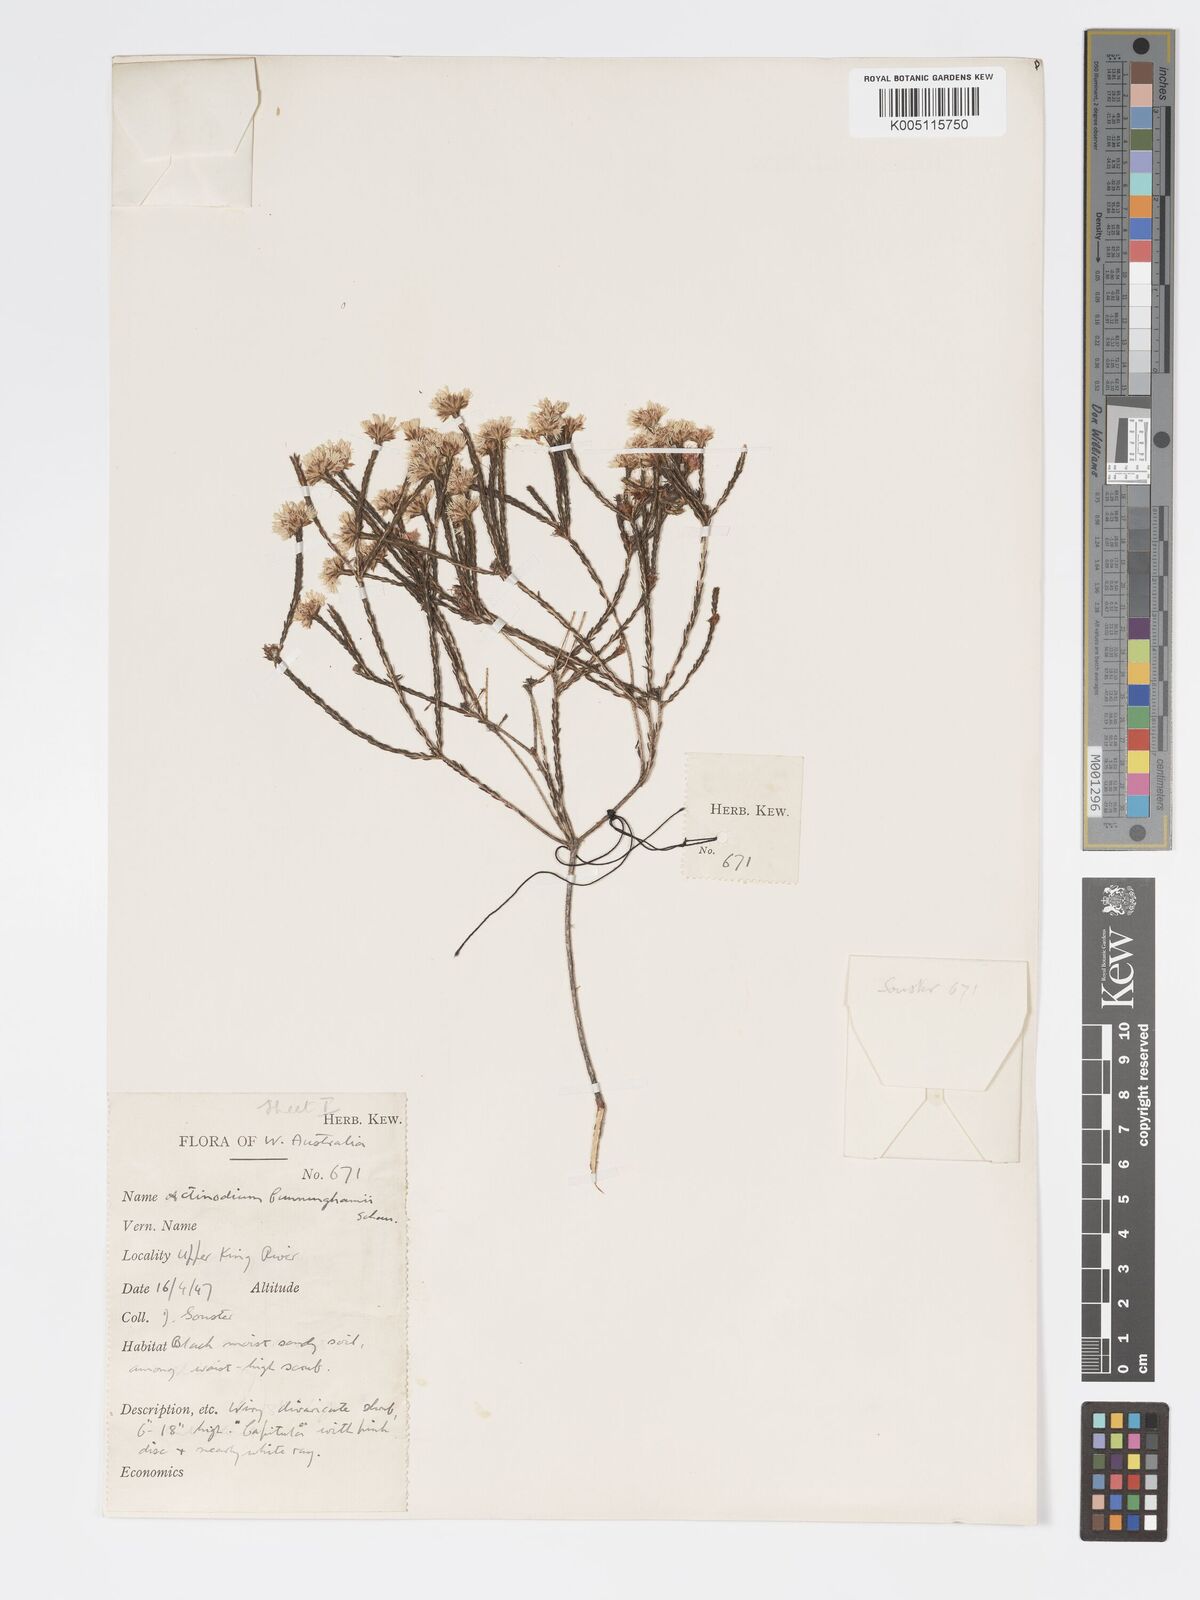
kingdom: Plantae
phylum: Tracheophyta
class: Magnoliopsida
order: Myrtales
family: Myrtaceae
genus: Actinodium
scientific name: Actinodium cunninghamii
